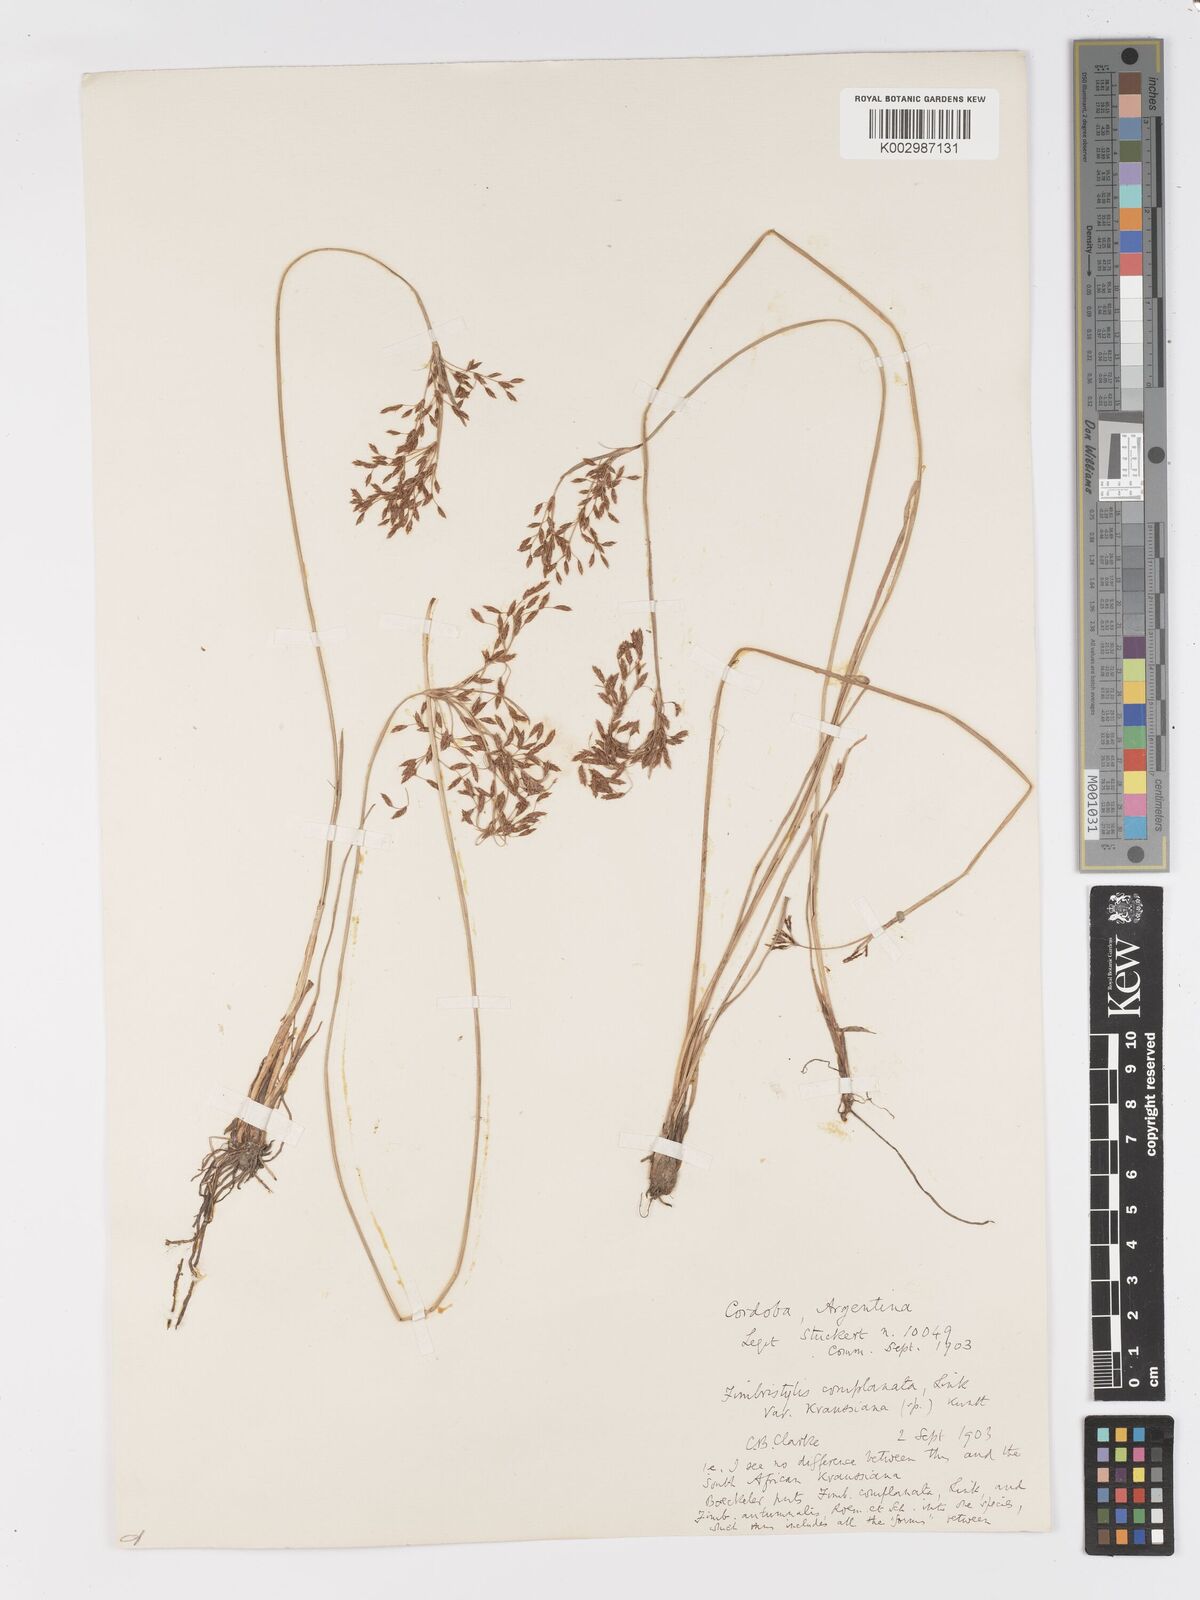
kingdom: Plantae
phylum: Tracheophyta
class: Liliopsida
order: Poales
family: Cyperaceae
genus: Fimbristylis
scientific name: Fimbristylis complanata
